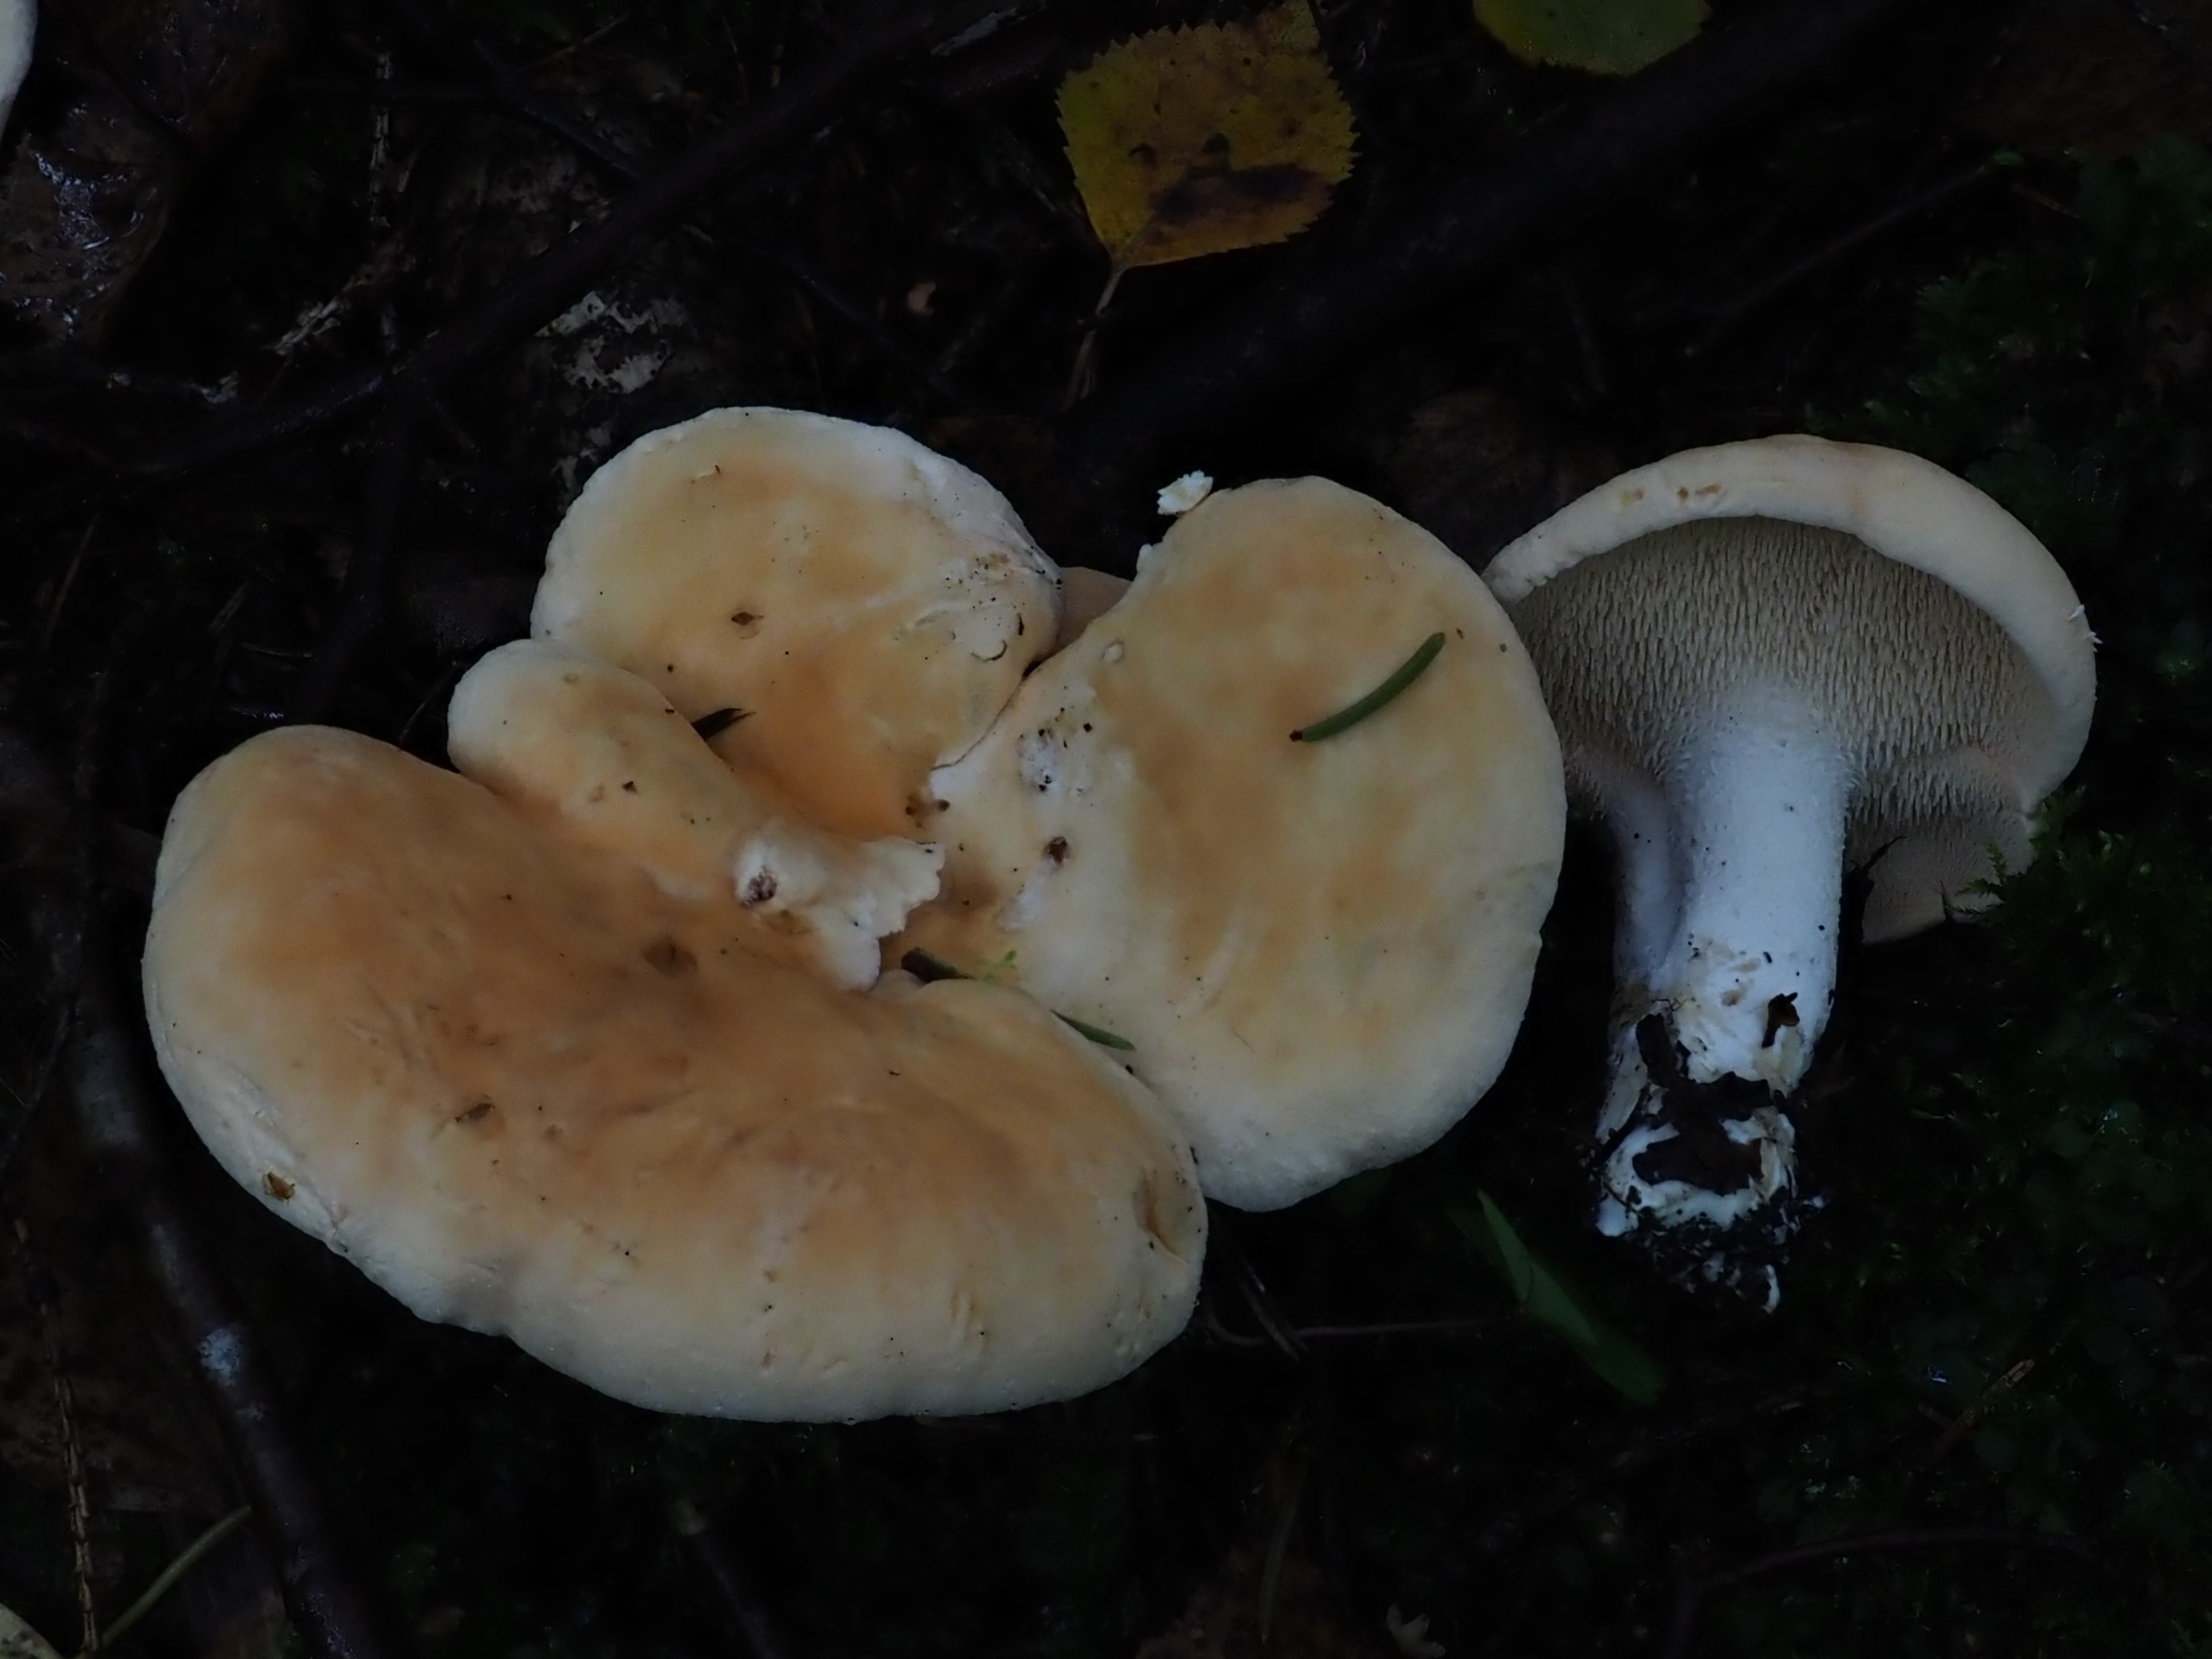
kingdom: Fungi
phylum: Basidiomycota
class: Agaricomycetes
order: Cantharellales
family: Hydnaceae
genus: Hydnum
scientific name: Hydnum rufescens
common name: Terracotta hedgehog
